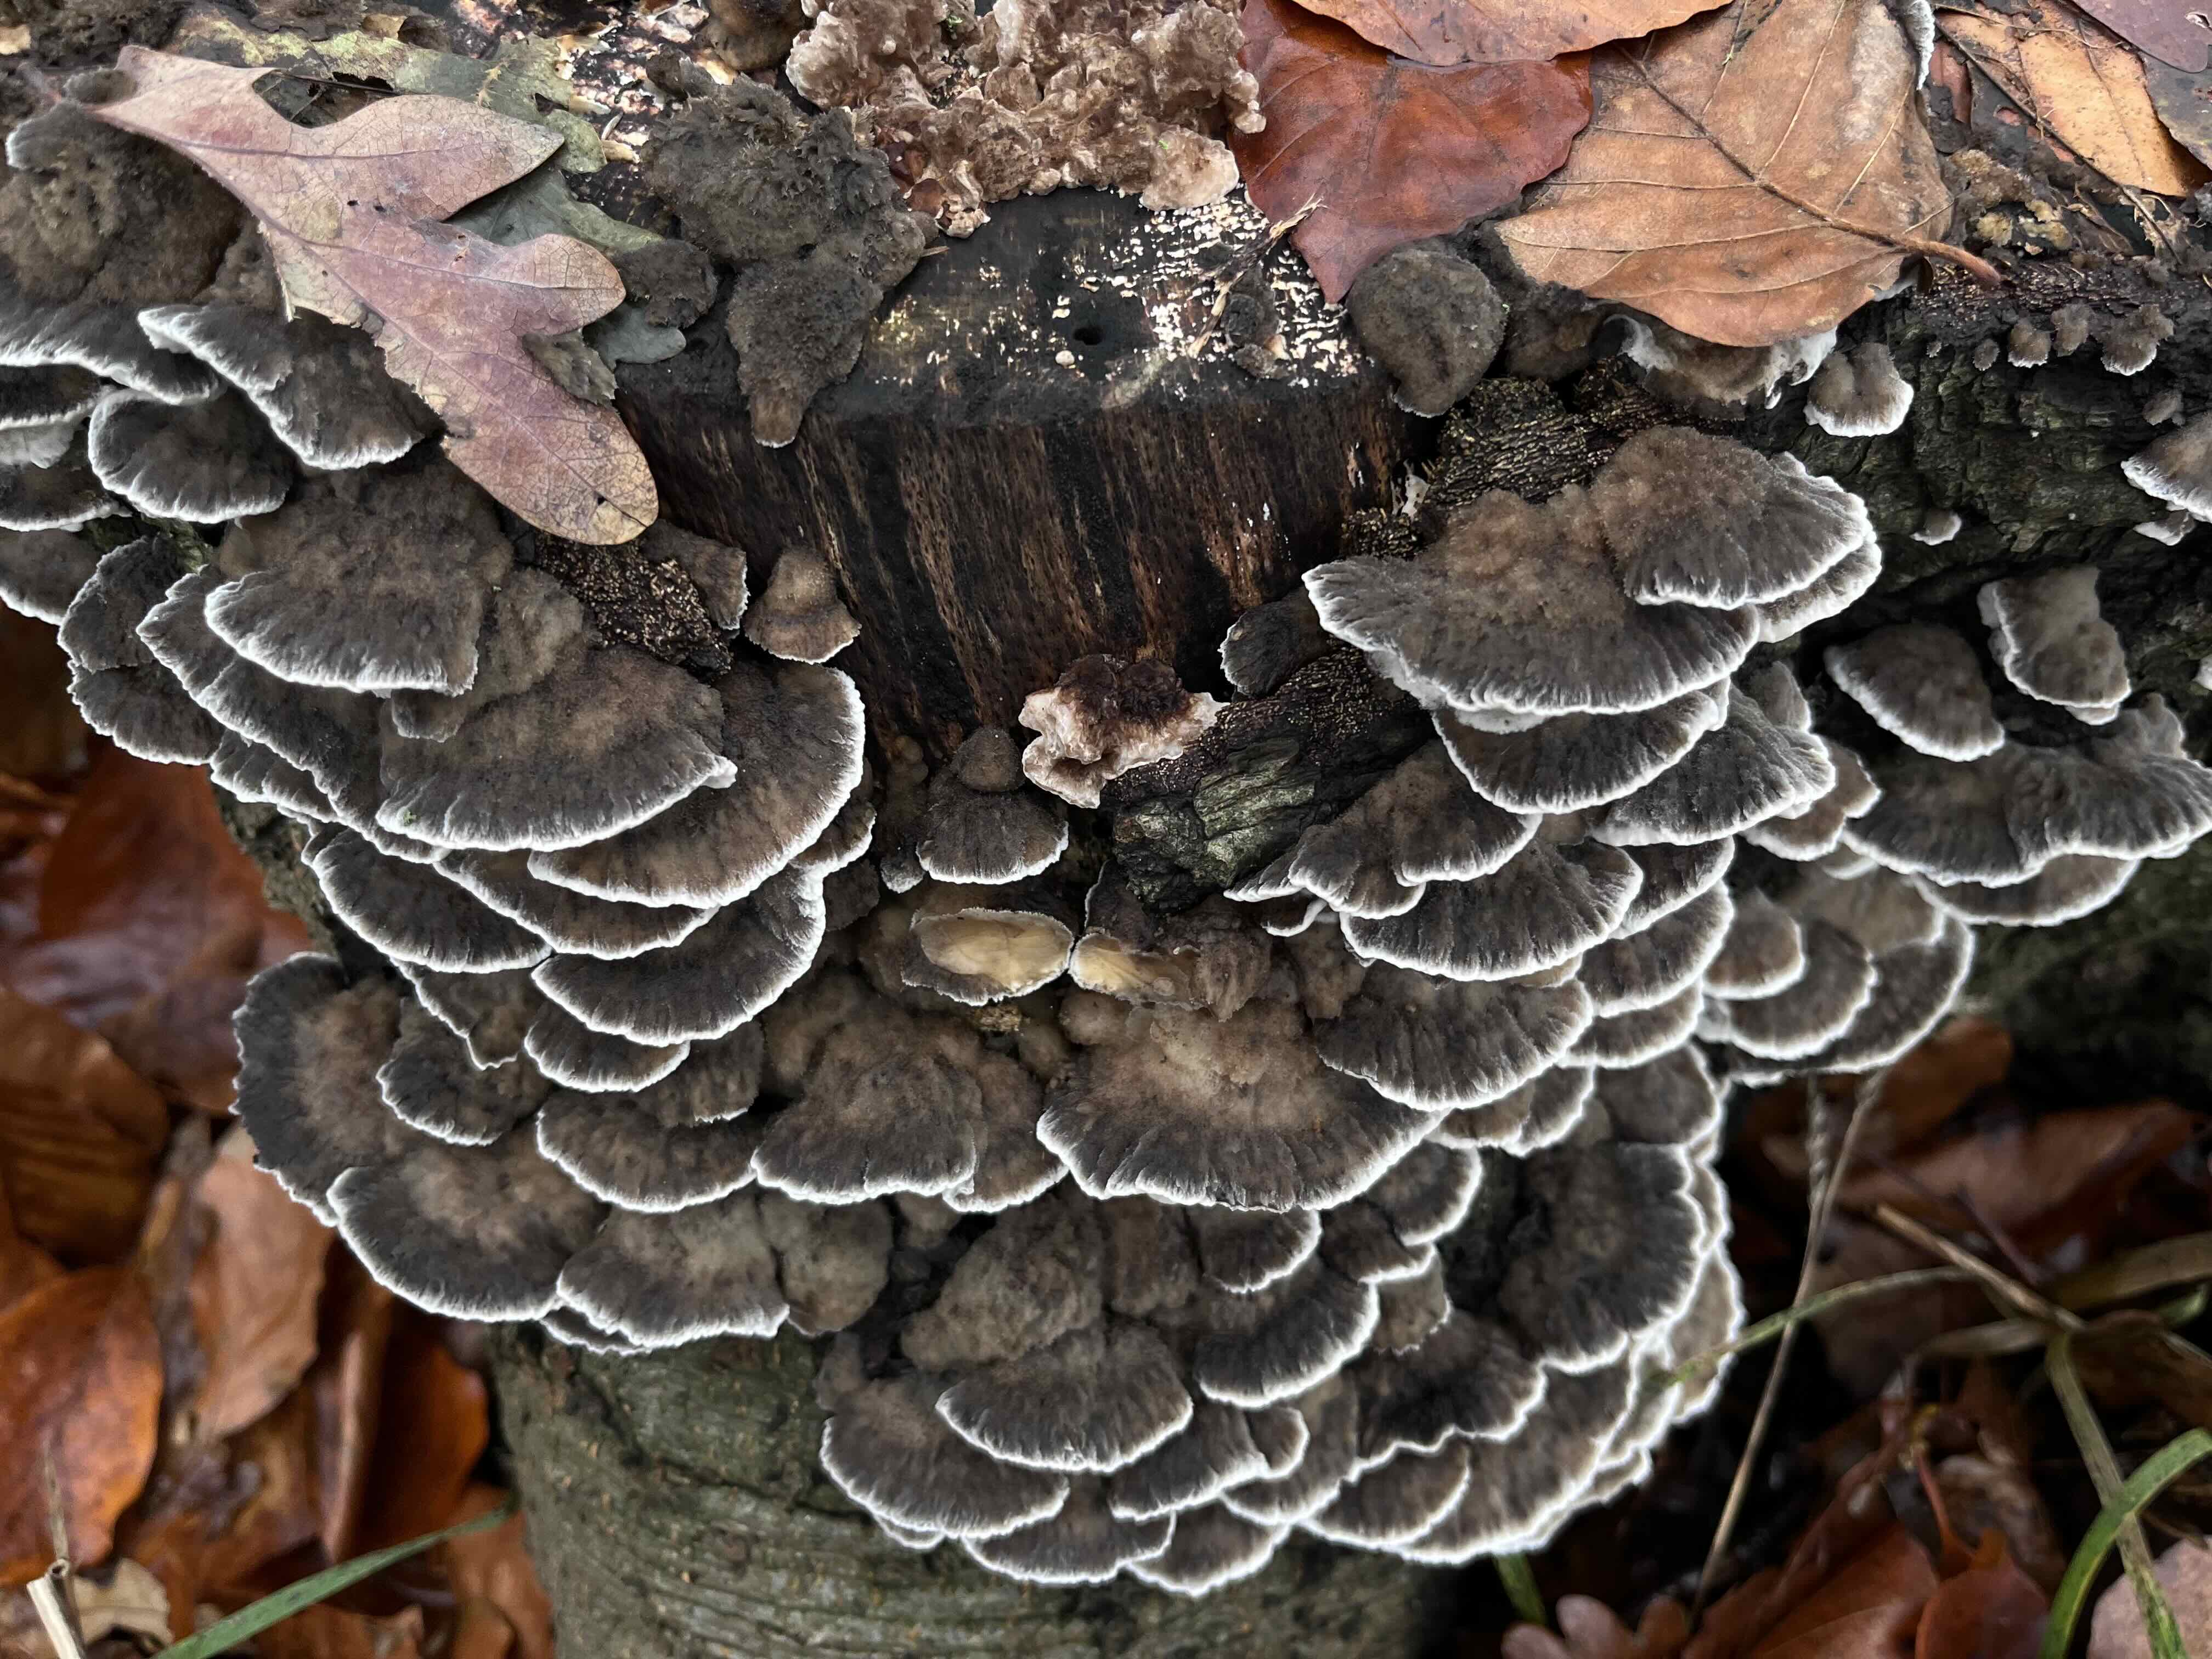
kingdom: Fungi
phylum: Basidiomycota
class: Agaricomycetes
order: Polyporales
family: Phanerochaetaceae
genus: Bjerkandera
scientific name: Bjerkandera adusta
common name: sveden sodporesvamp
